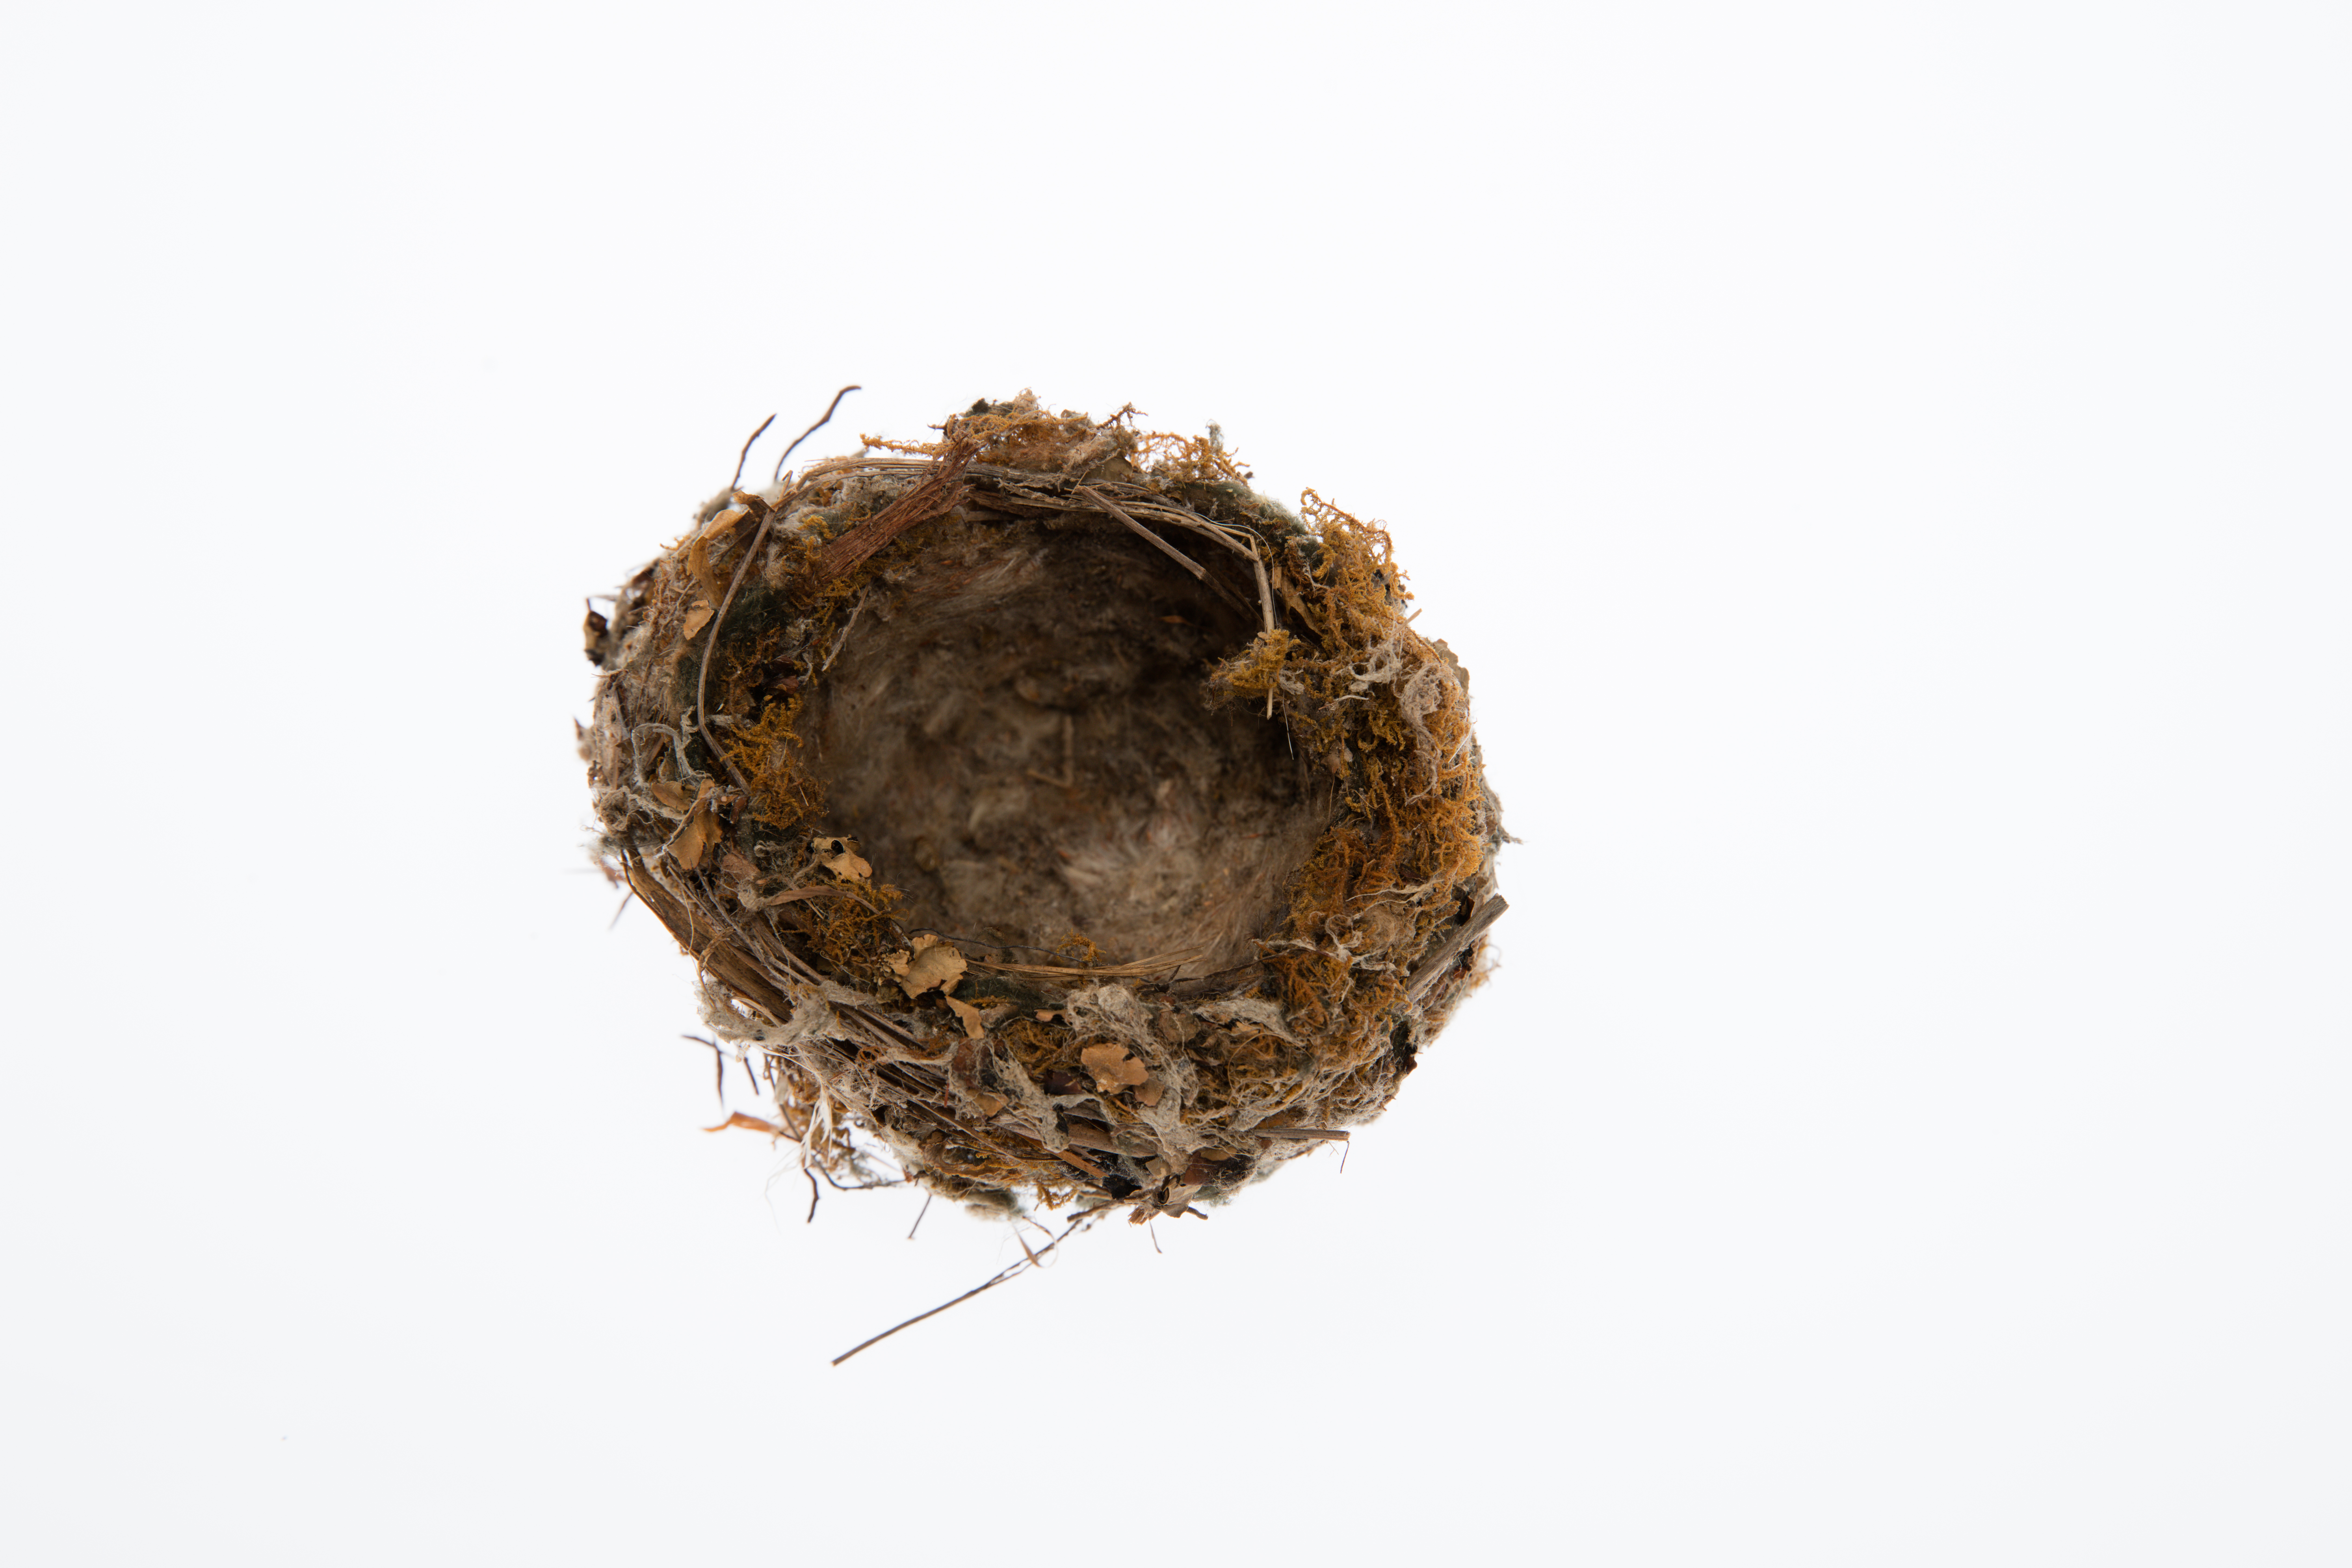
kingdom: Animalia
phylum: Chordata
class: Aves
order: Passeriformes
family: Fringillidae
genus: Fringilla
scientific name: Fringilla coelebs
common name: Common chaffinch
